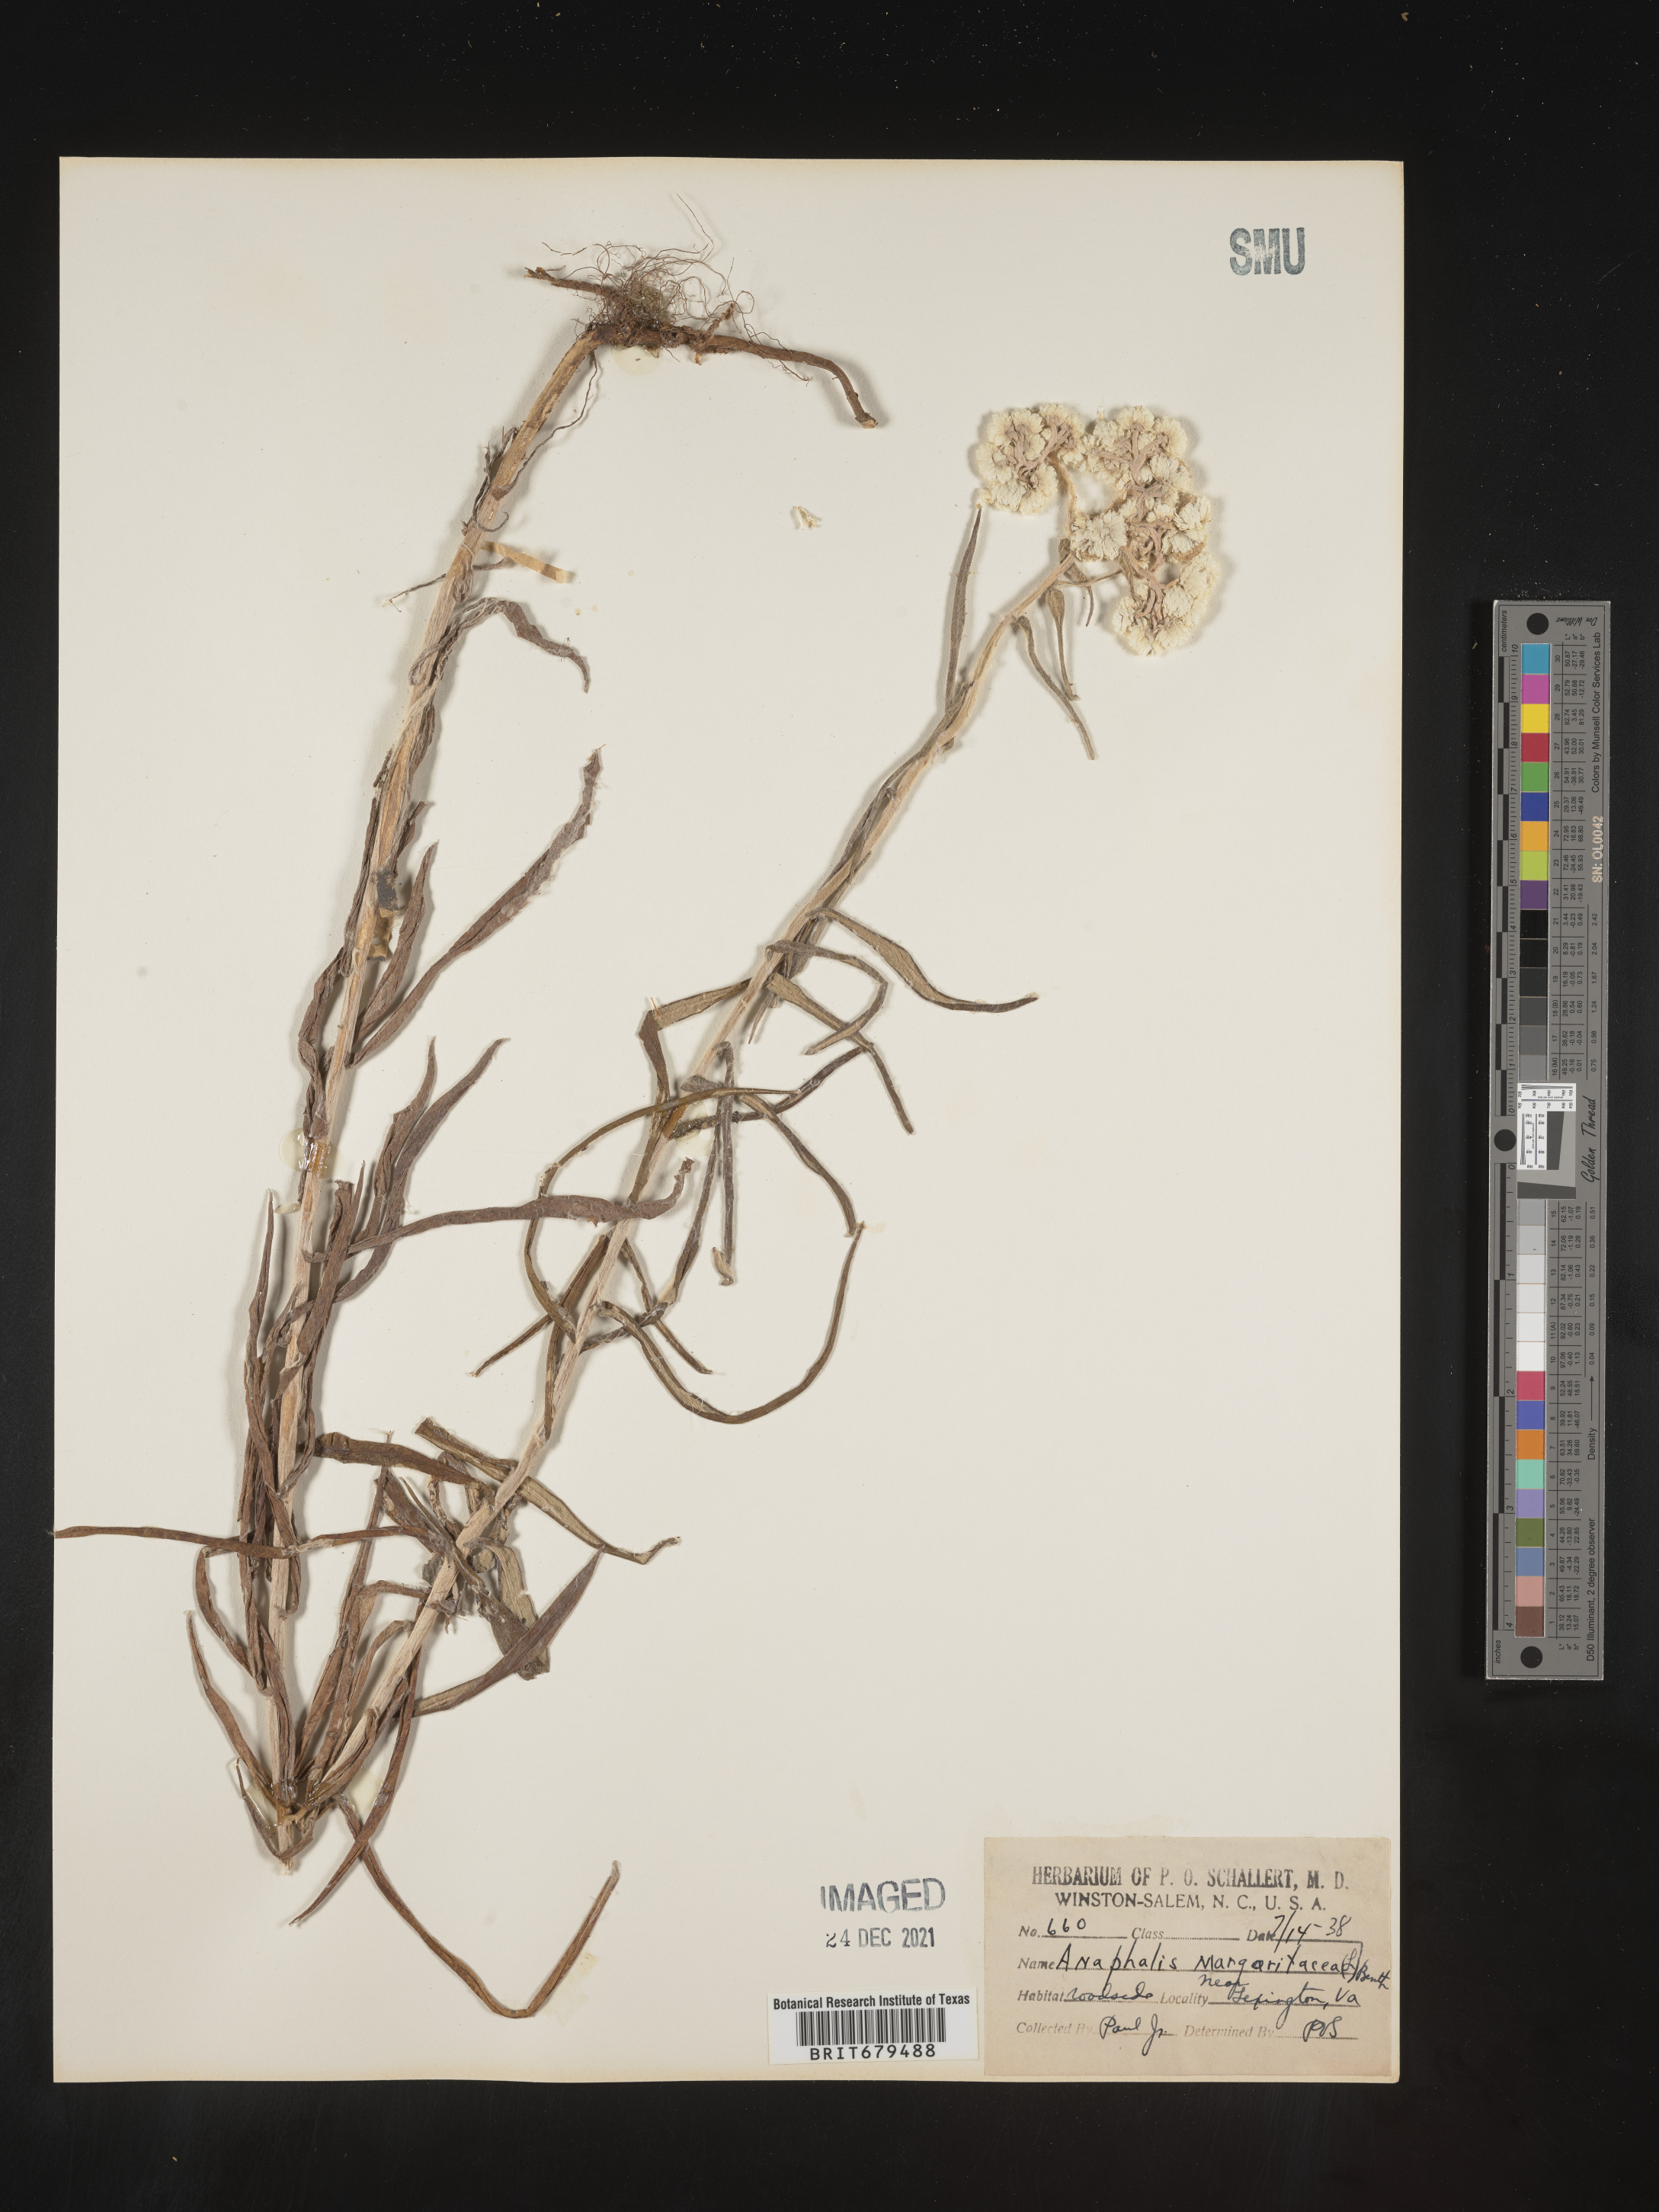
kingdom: Plantae
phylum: Tracheophyta
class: Magnoliopsida
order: Asterales
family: Asteraceae
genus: Anaphalis
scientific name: Anaphalis margaritacea
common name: Pearly everlasting
